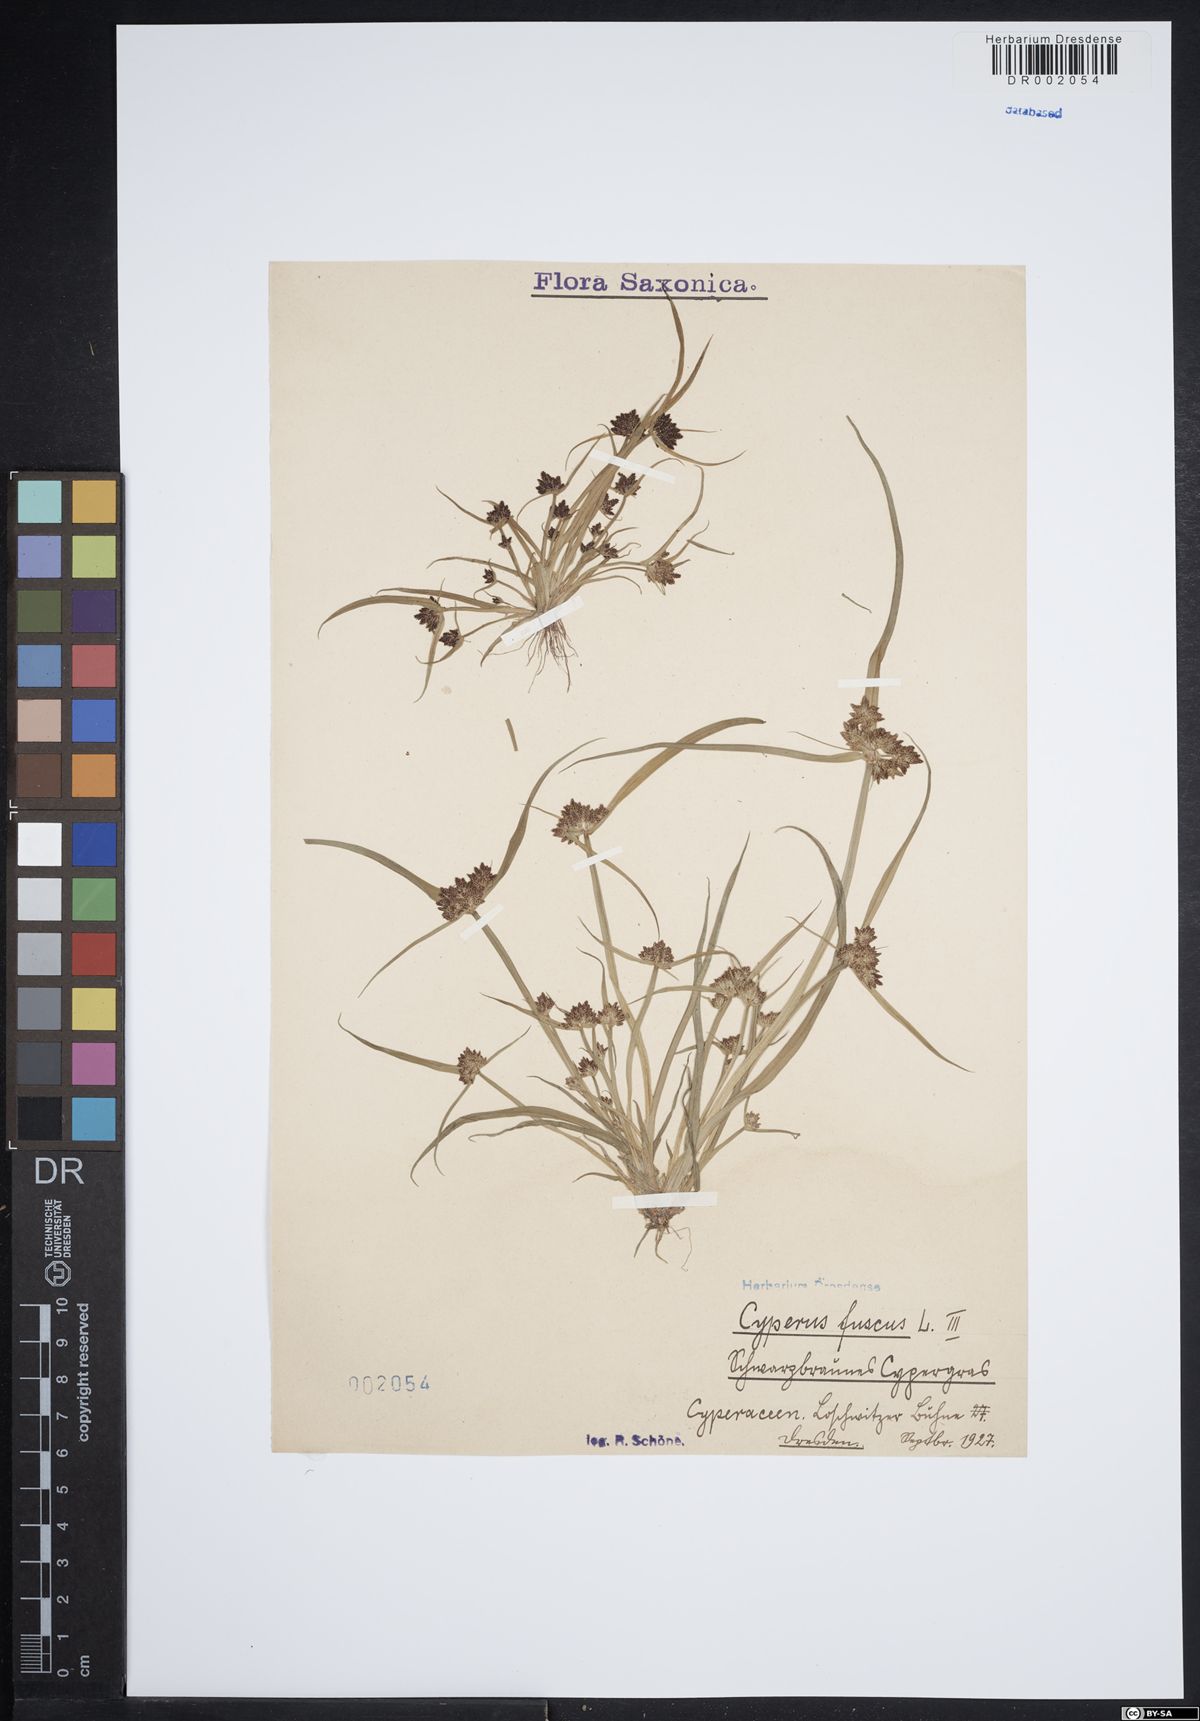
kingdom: Plantae
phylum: Tracheophyta
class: Liliopsida
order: Poales
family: Cyperaceae
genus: Cyperus
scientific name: Cyperus fuscus
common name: Brown galingale
